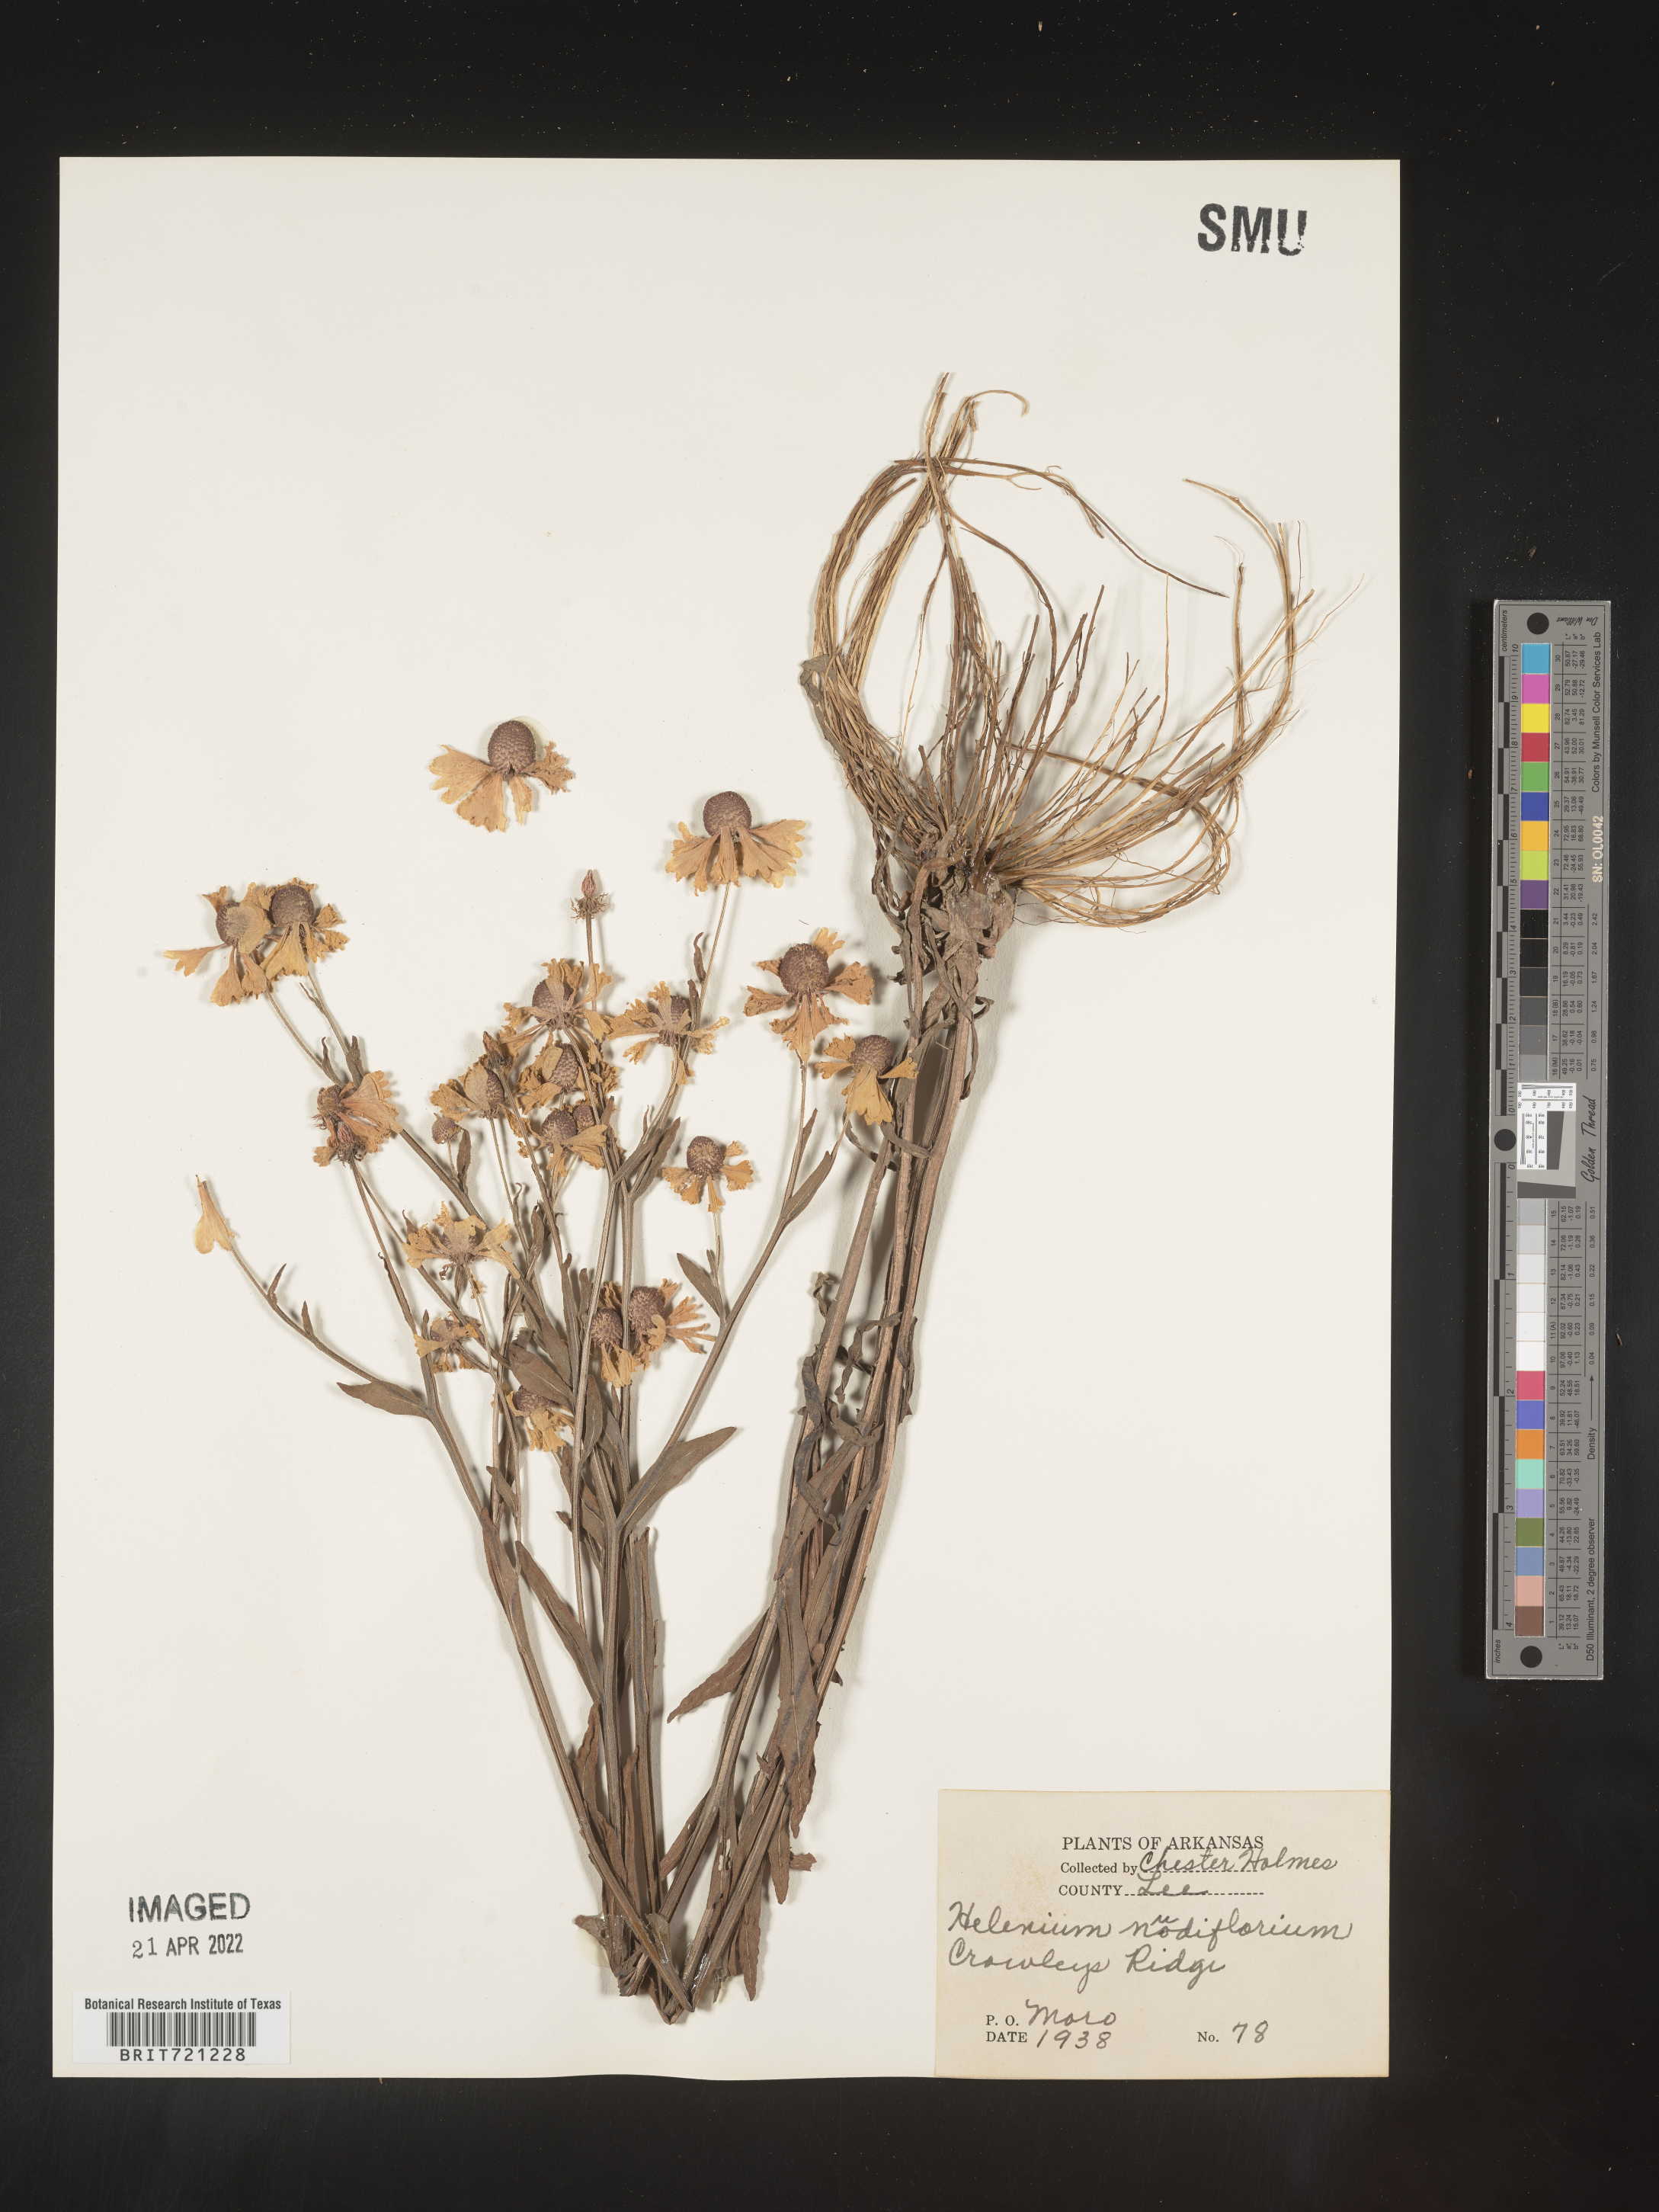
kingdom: Plantae
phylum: Tracheophyta
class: Magnoliopsida
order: Asterales
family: Asteraceae
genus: Helenium
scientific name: Helenium flexuosum
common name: Naked-flowered sneezeweed
